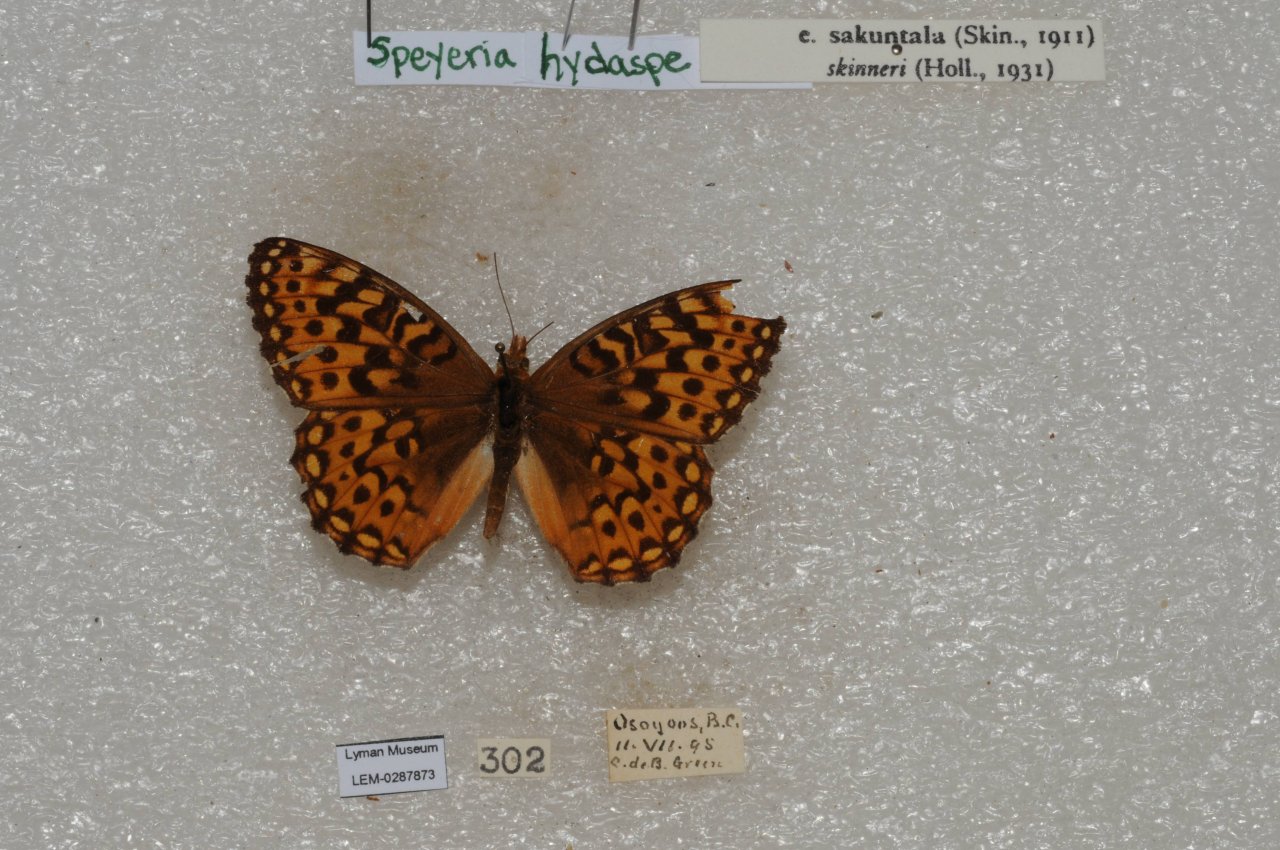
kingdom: Animalia
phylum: Arthropoda
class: Insecta
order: Lepidoptera
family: Nymphalidae
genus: Speyeria
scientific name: Speyeria hydaspe
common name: Hydaspe Fritillary
